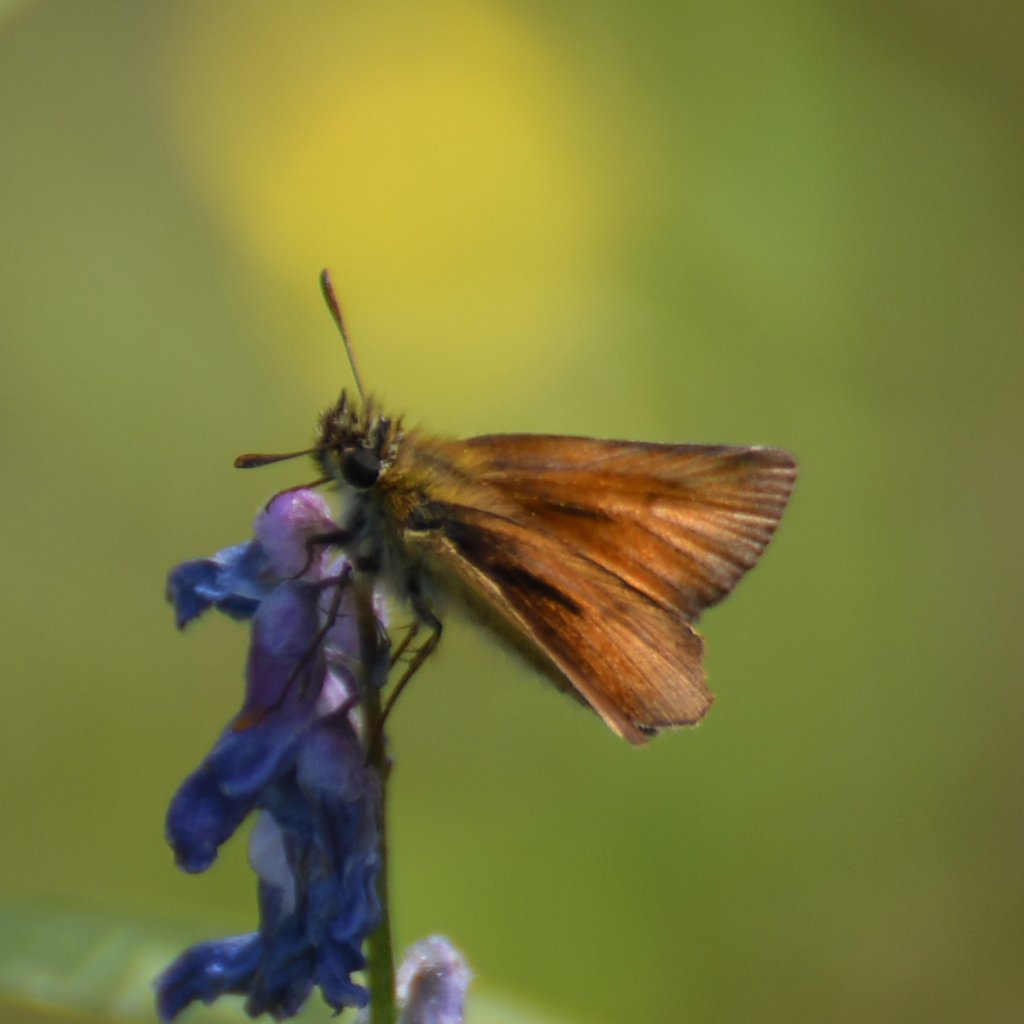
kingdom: Animalia
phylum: Arthropoda
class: Insecta
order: Lepidoptera
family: Hesperiidae
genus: Thymelicus
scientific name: Thymelicus lineola
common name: European Skipper
